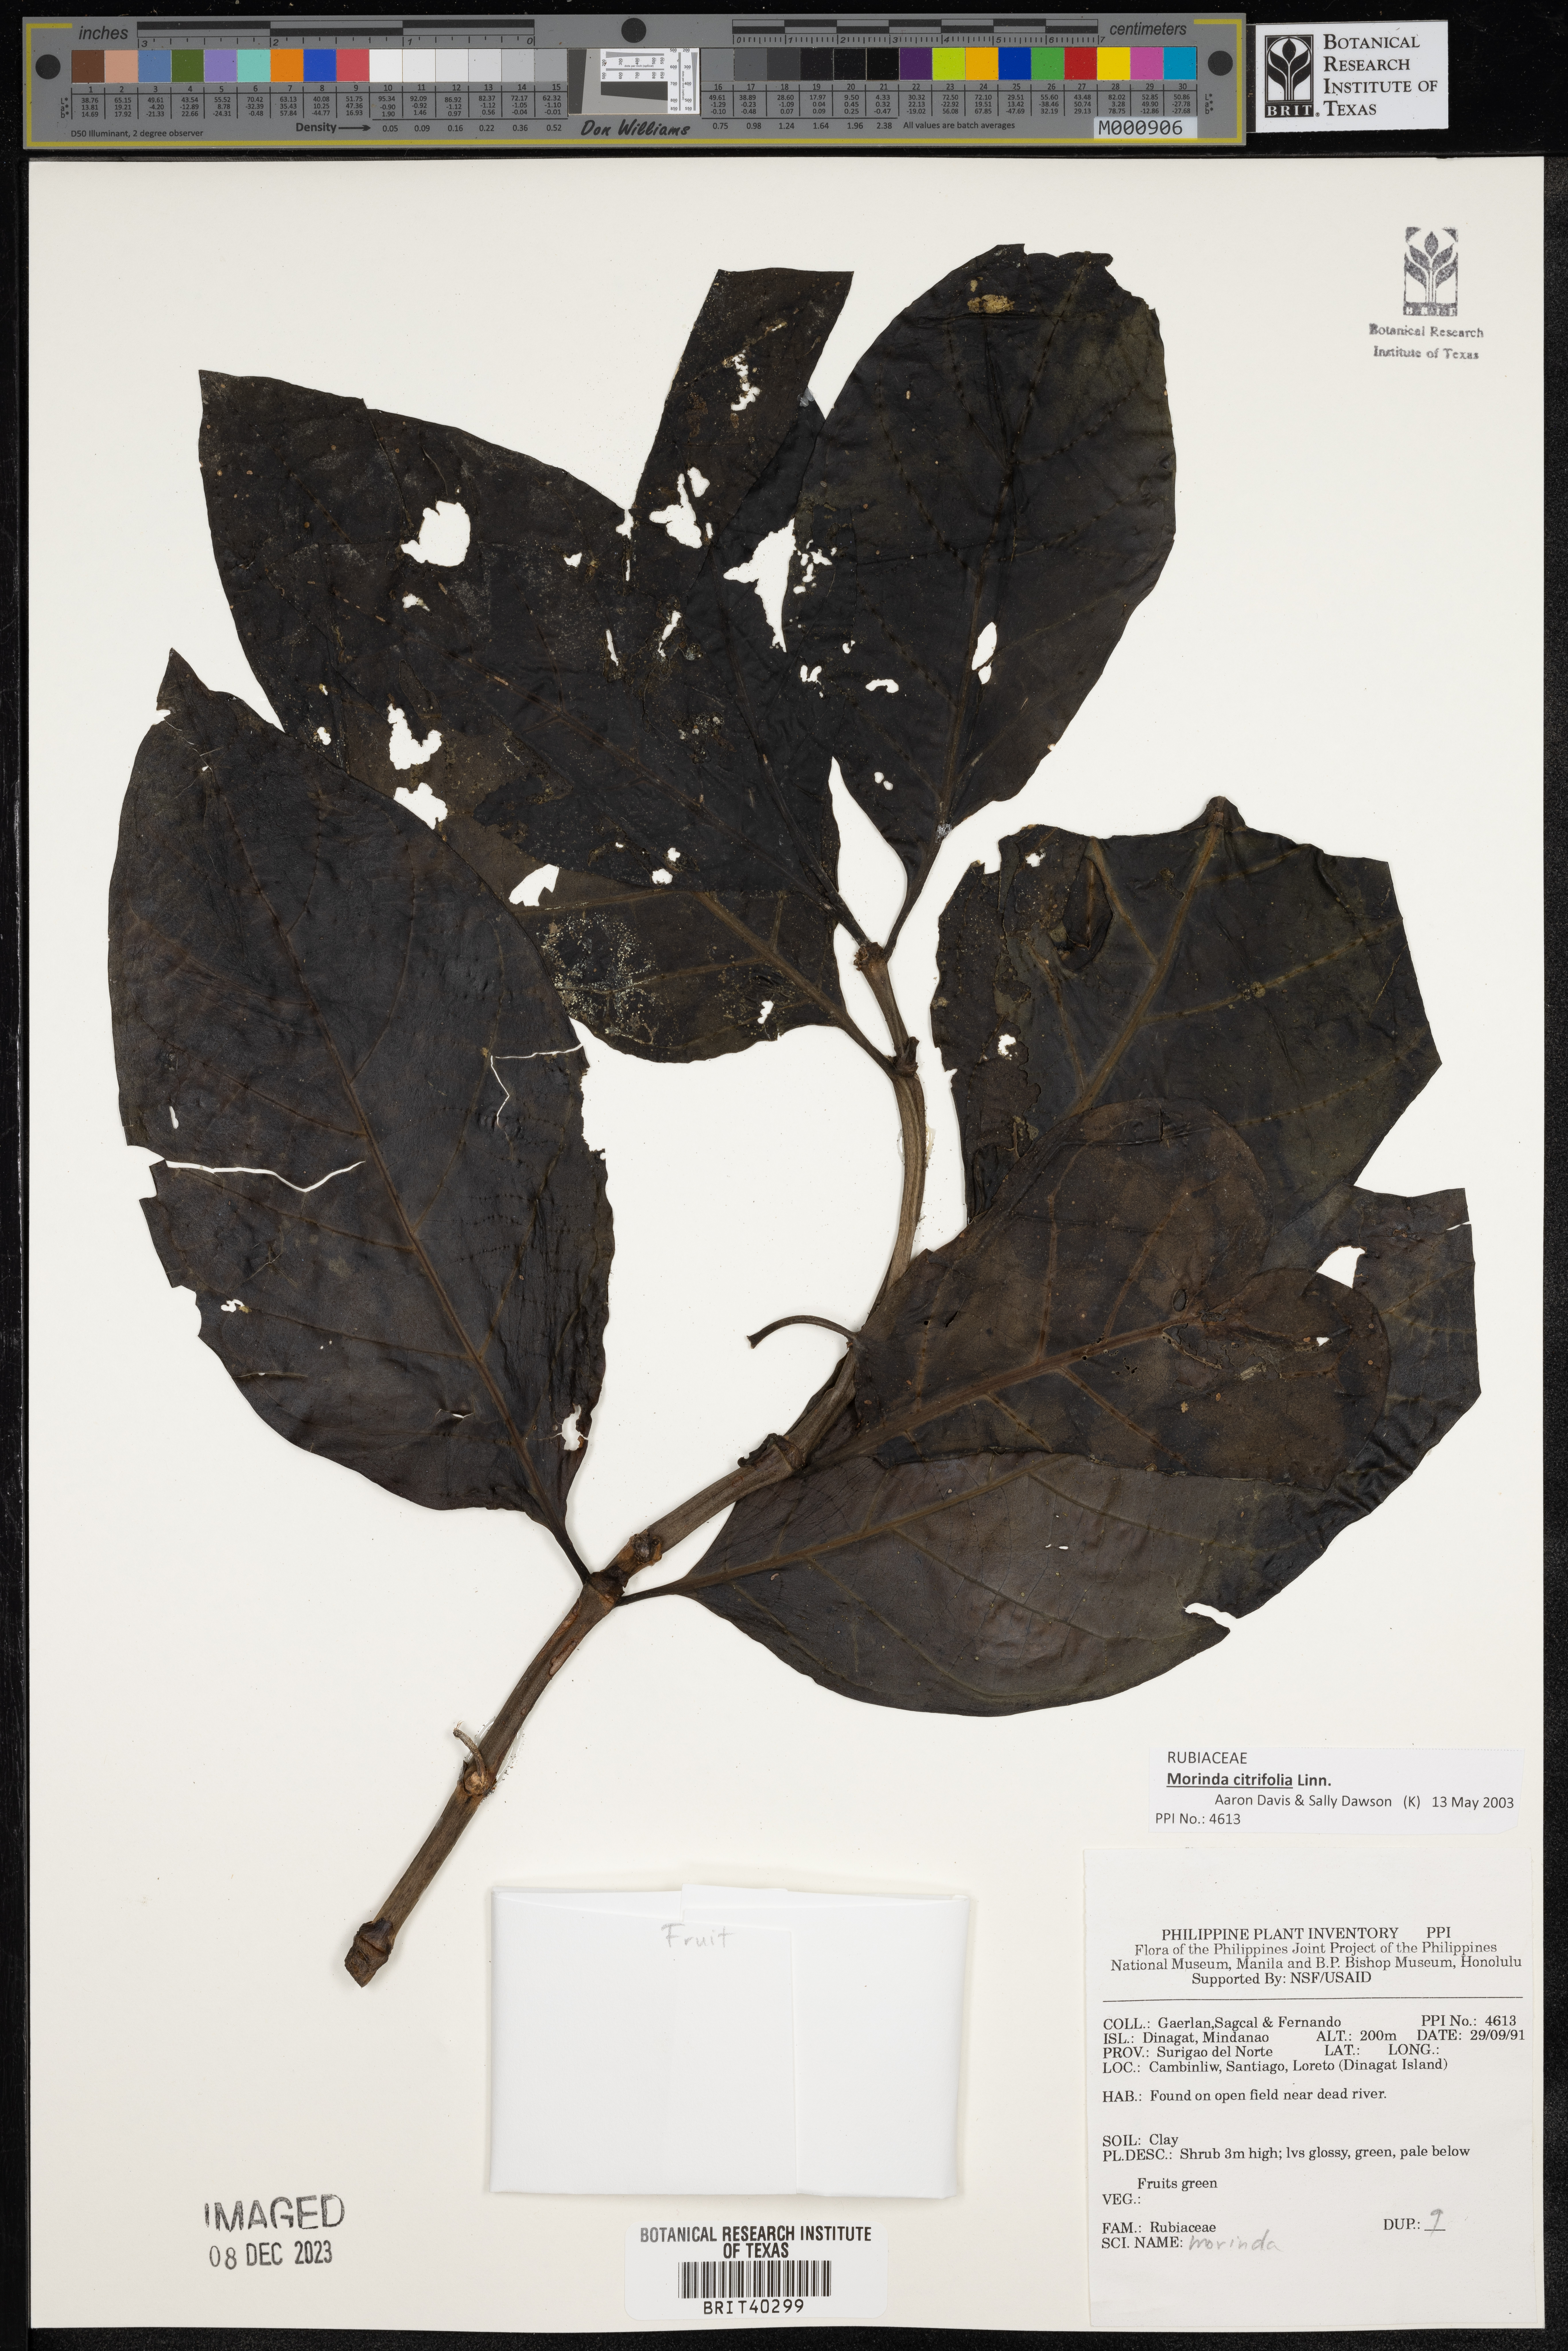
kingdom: Plantae
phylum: Tracheophyta
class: Magnoliopsida
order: Gentianales
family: Rubiaceae
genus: Morinda
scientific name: Morinda
